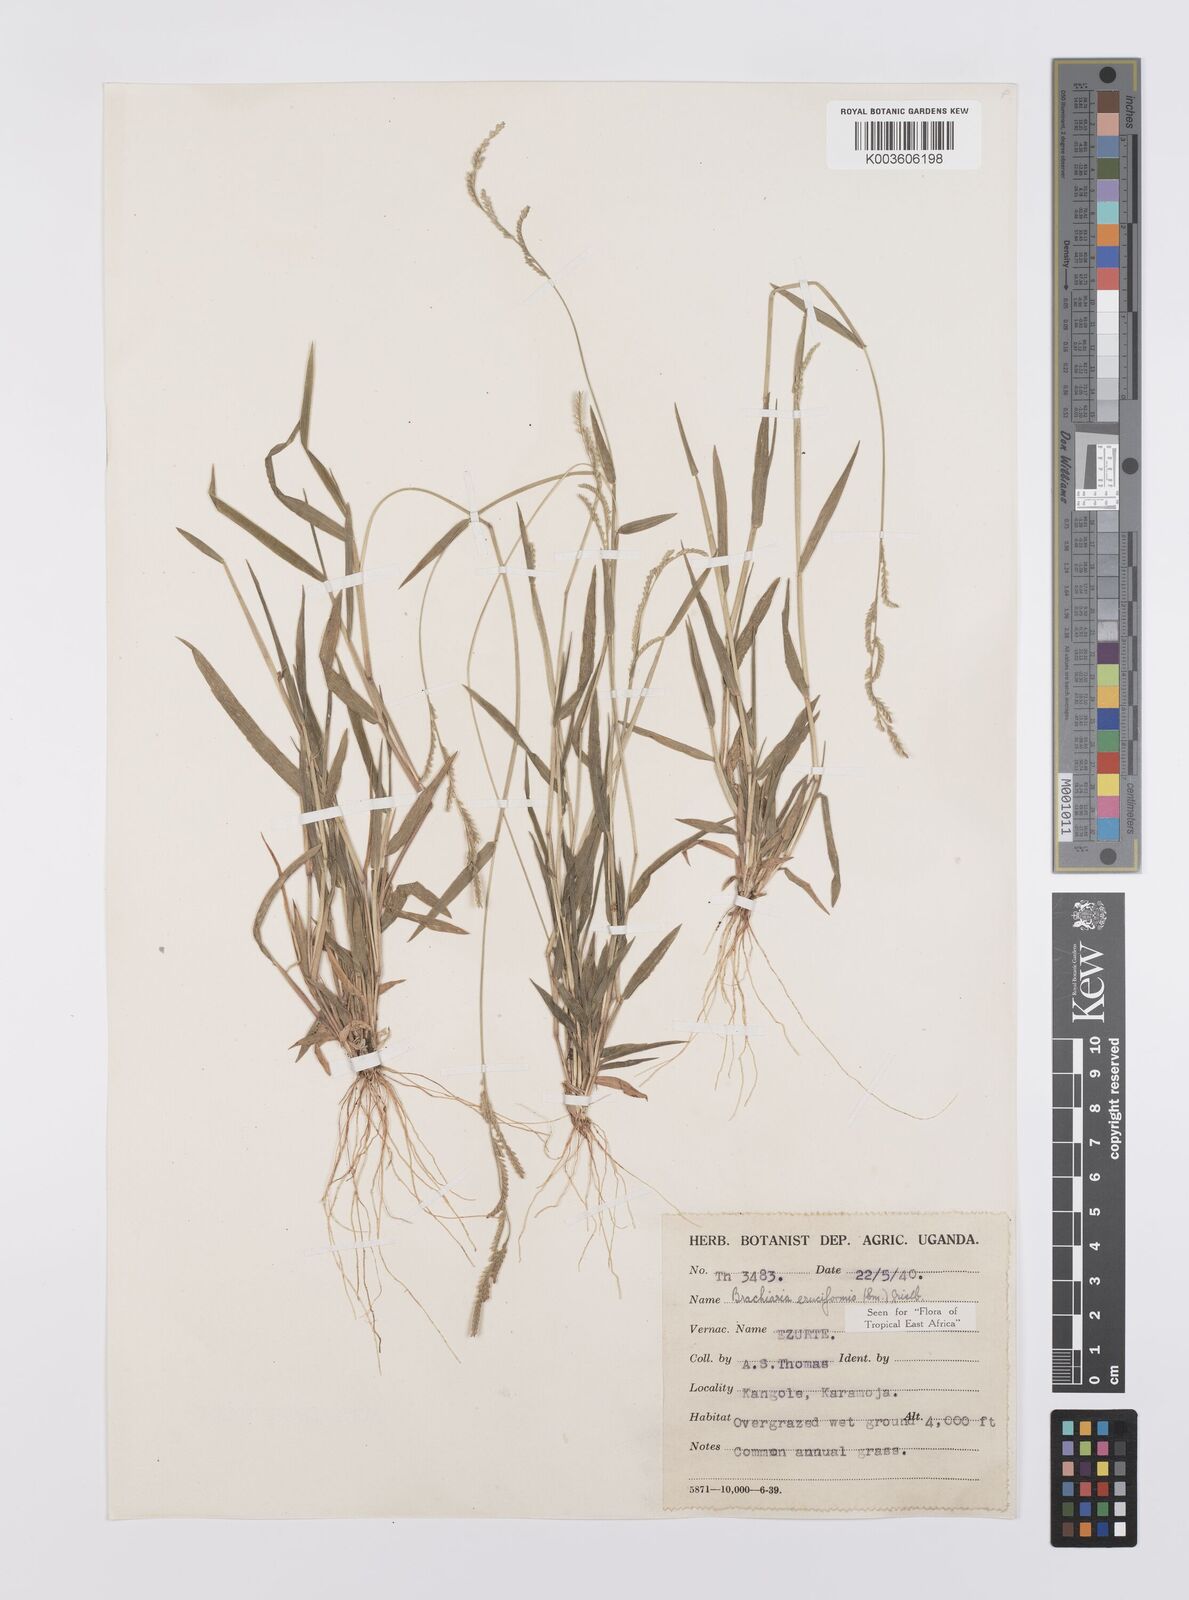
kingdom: Plantae
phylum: Tracheophyta
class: Liliopsida
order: Poales
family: Poaceae
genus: Moorochloa
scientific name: Moorochloa eruciformis
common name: Sweet signalgrass
